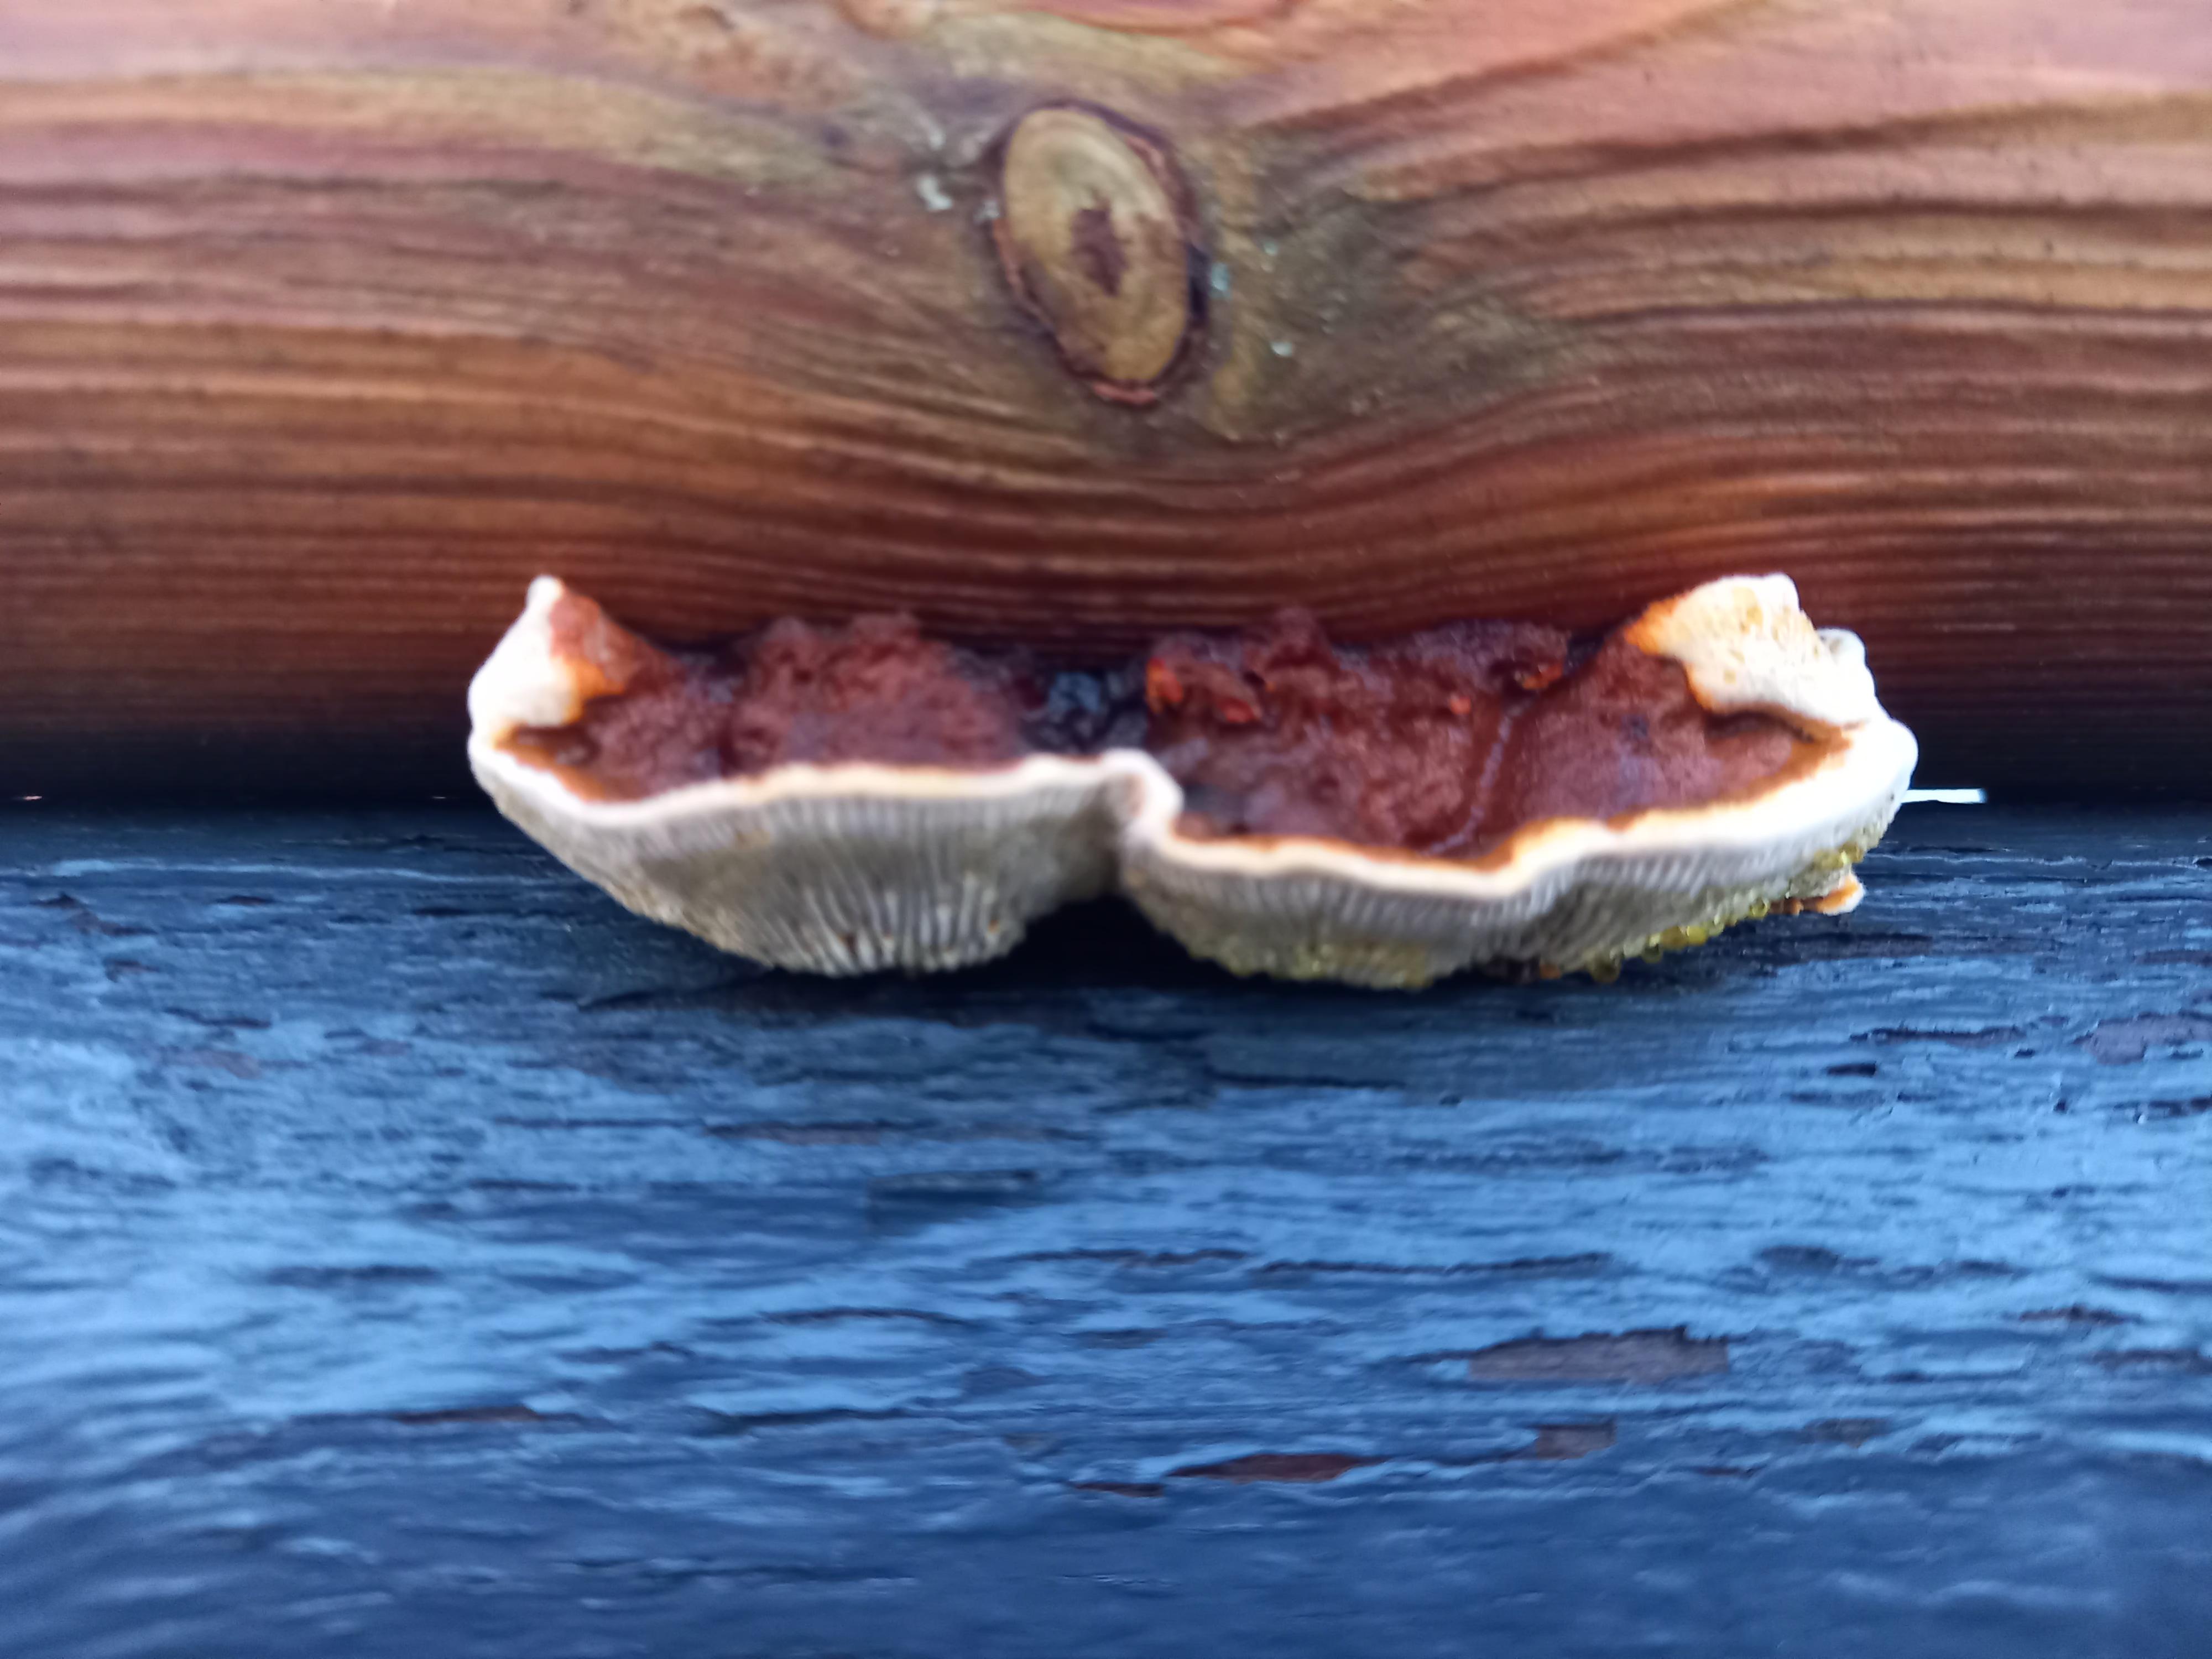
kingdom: Fungi
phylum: Basidiomycota
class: Agaricomycetes
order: Gloeophyllales
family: Gloeophyllaceae
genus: Gloeophyllum
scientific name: Gloeophyllum sepiarium
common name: fyrre-korkhat
